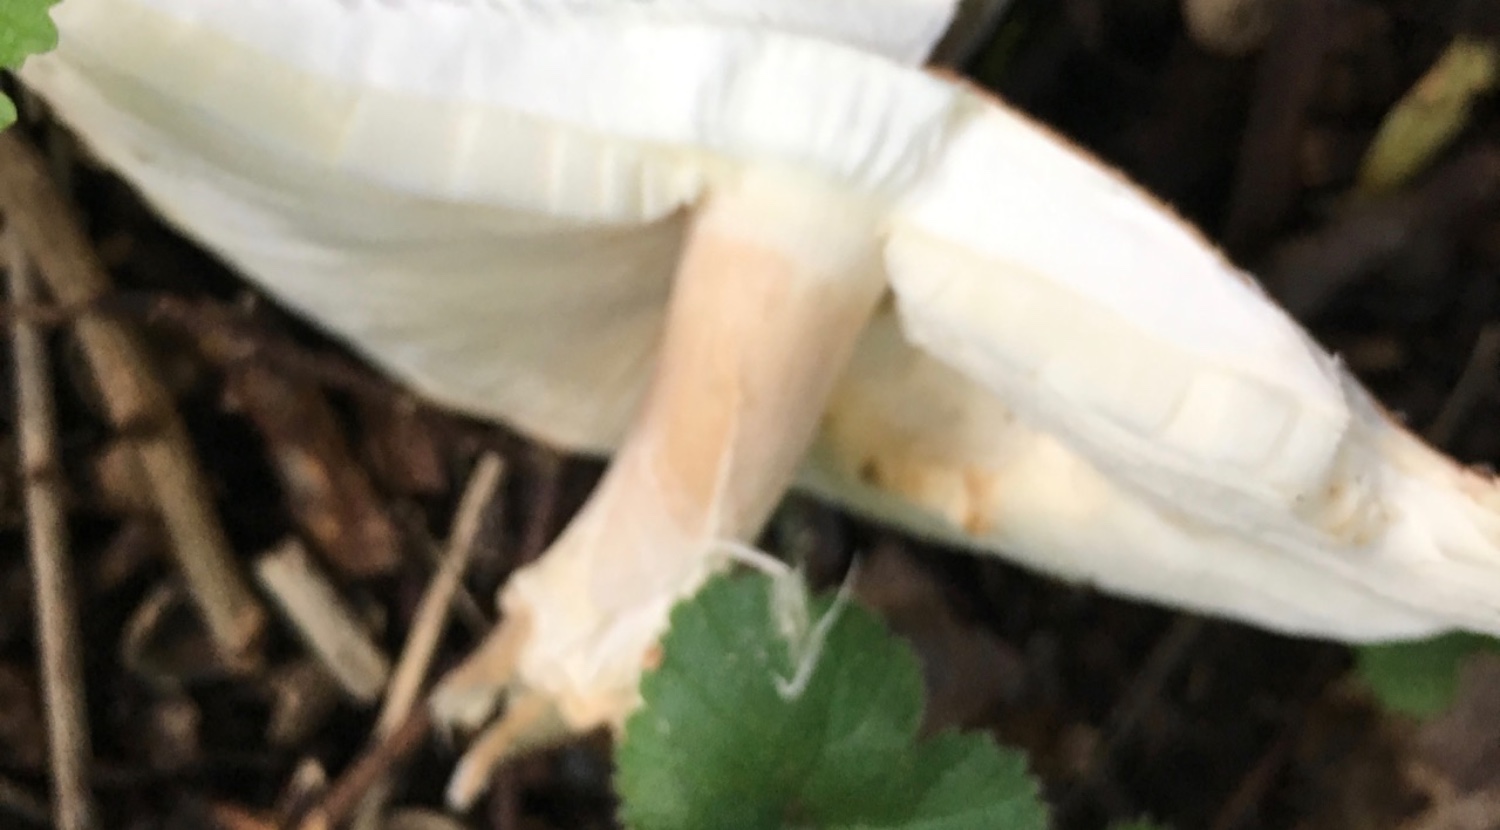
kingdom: Fungi
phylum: Basidiomycota
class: Agaricomycetes
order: Agaricales
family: Agaricaceae
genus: Echinoderma
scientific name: Echinoderma asperum
